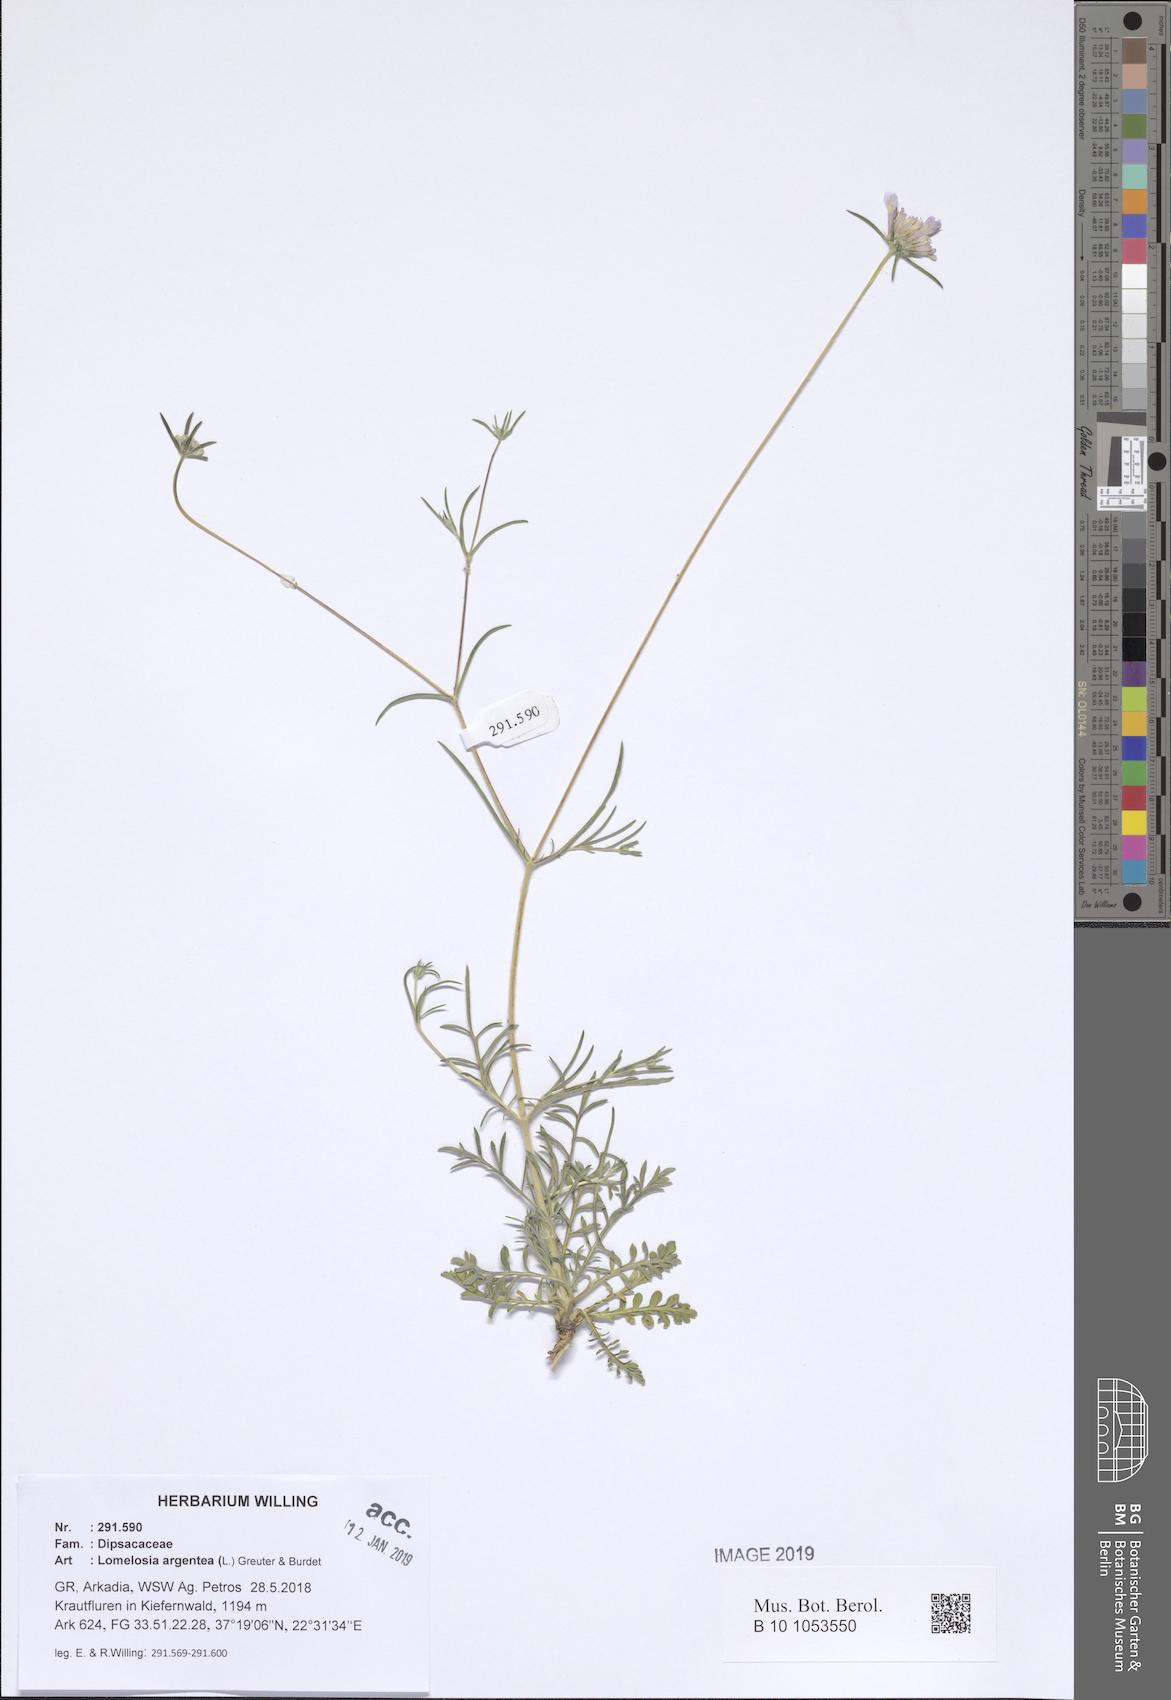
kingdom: Plantae
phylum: Tracheophyta
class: Magnoliopsida
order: Dipsacales
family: Caprifoliaceae
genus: Lomelosia
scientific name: Lomelosia argentea
